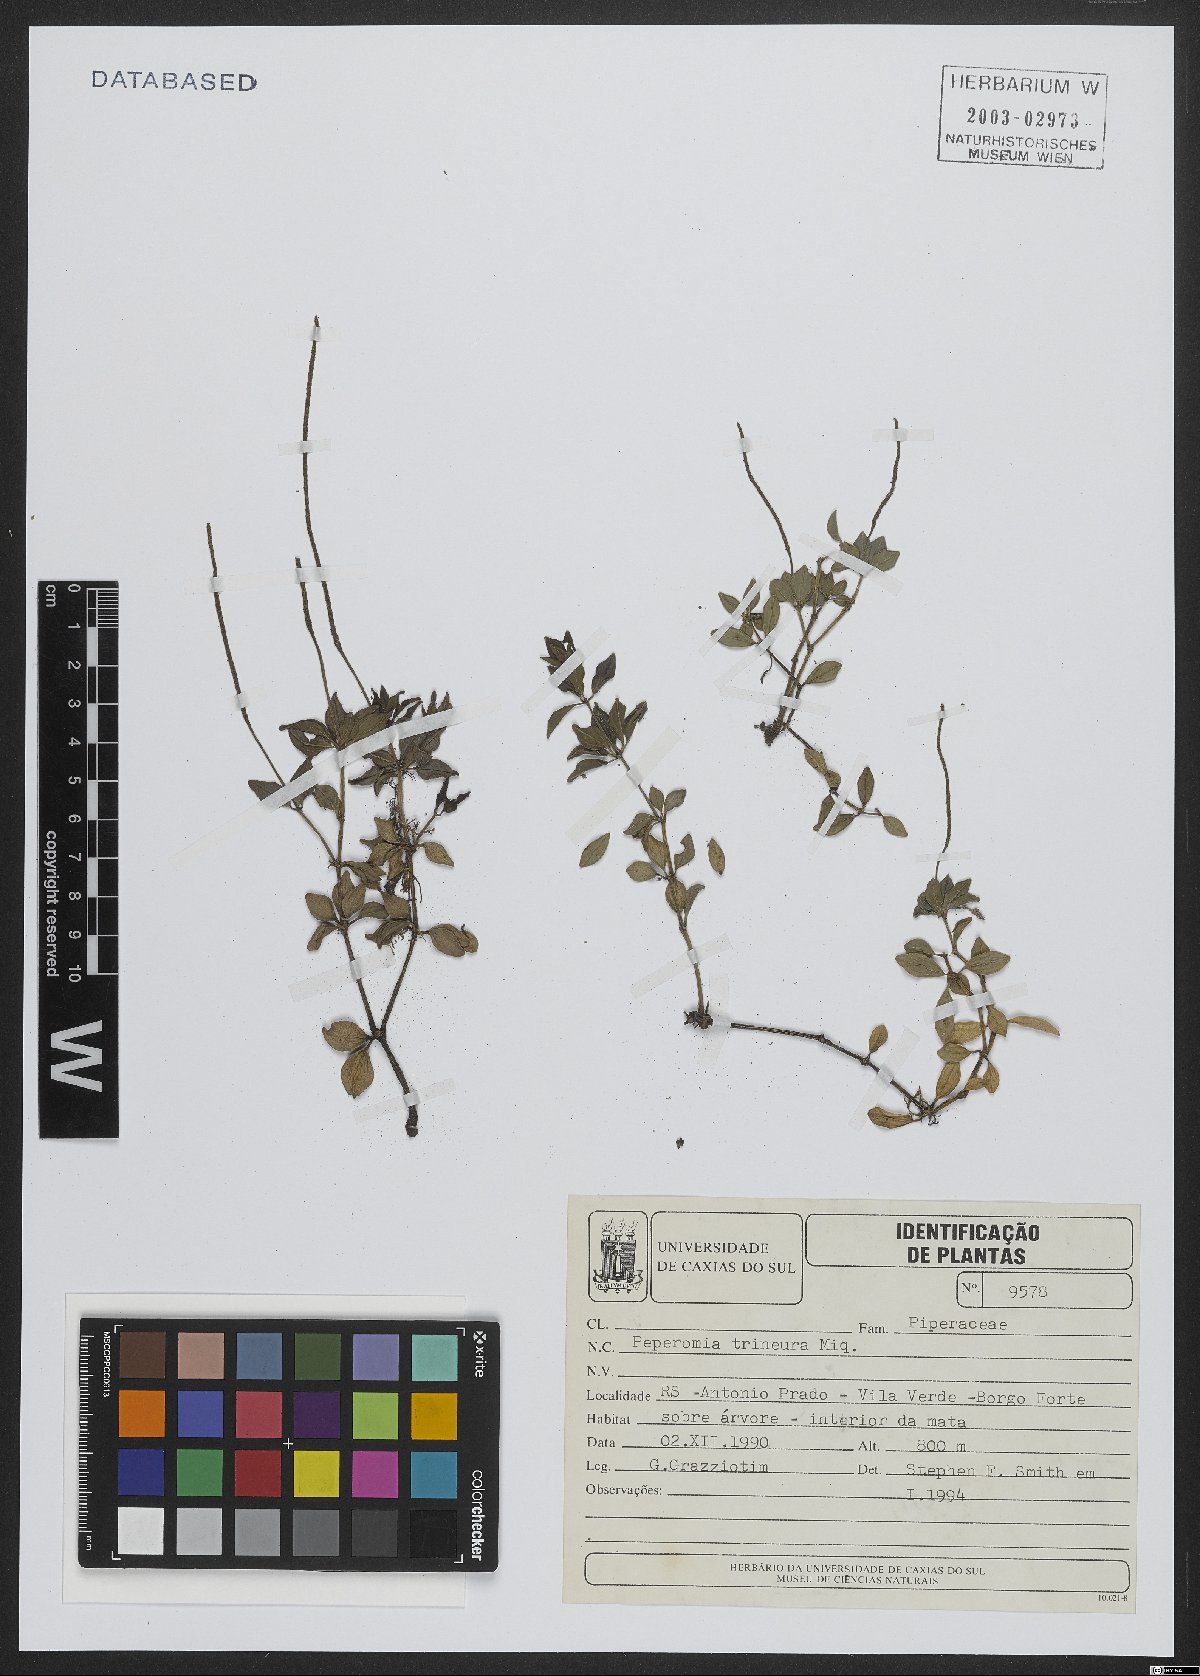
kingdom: Plantae
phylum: Tracheophyta
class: Magnoliopsida
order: Piperales
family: Piperaceae
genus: Peperomia
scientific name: Peperomia trineura
